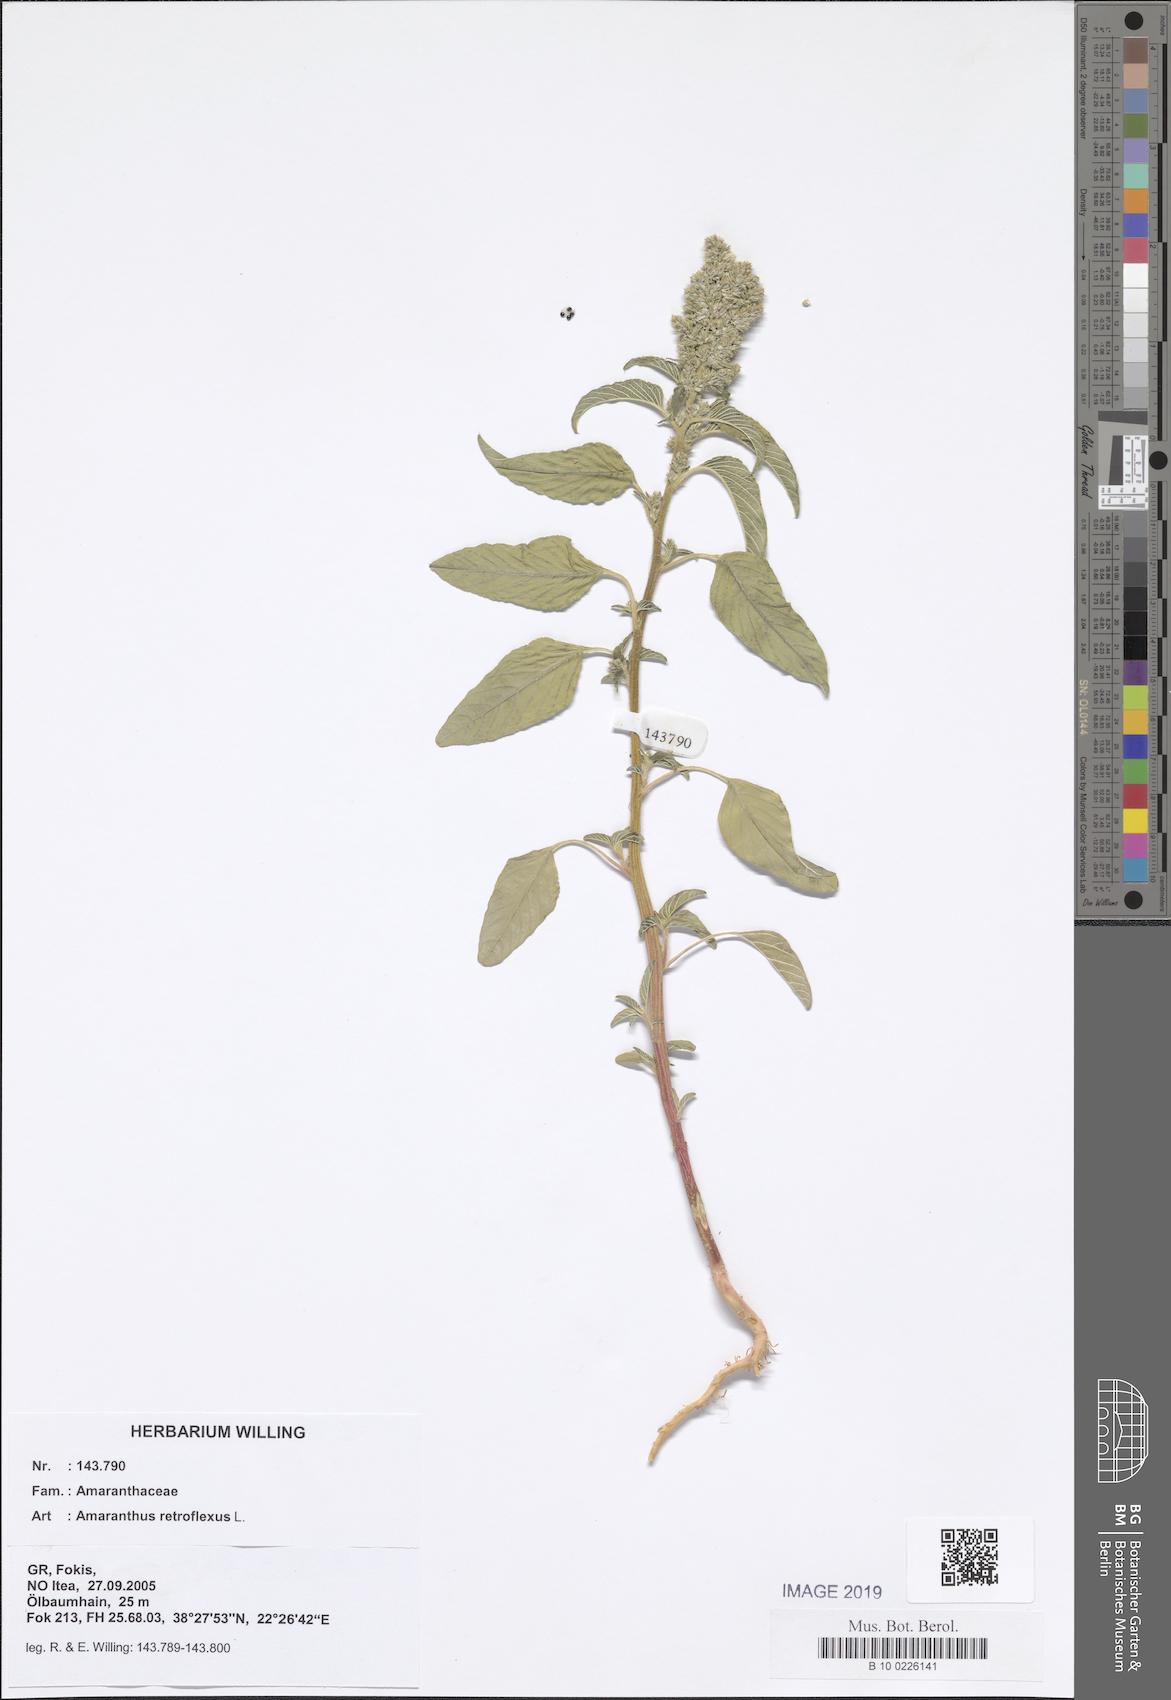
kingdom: Plantae
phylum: Tracheophyta
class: Magnoliopsida
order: Caryophyllales
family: Amaranthaceae
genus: Amaranthus
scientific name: Amaranthus retroflexus
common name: Redroot amaranth
